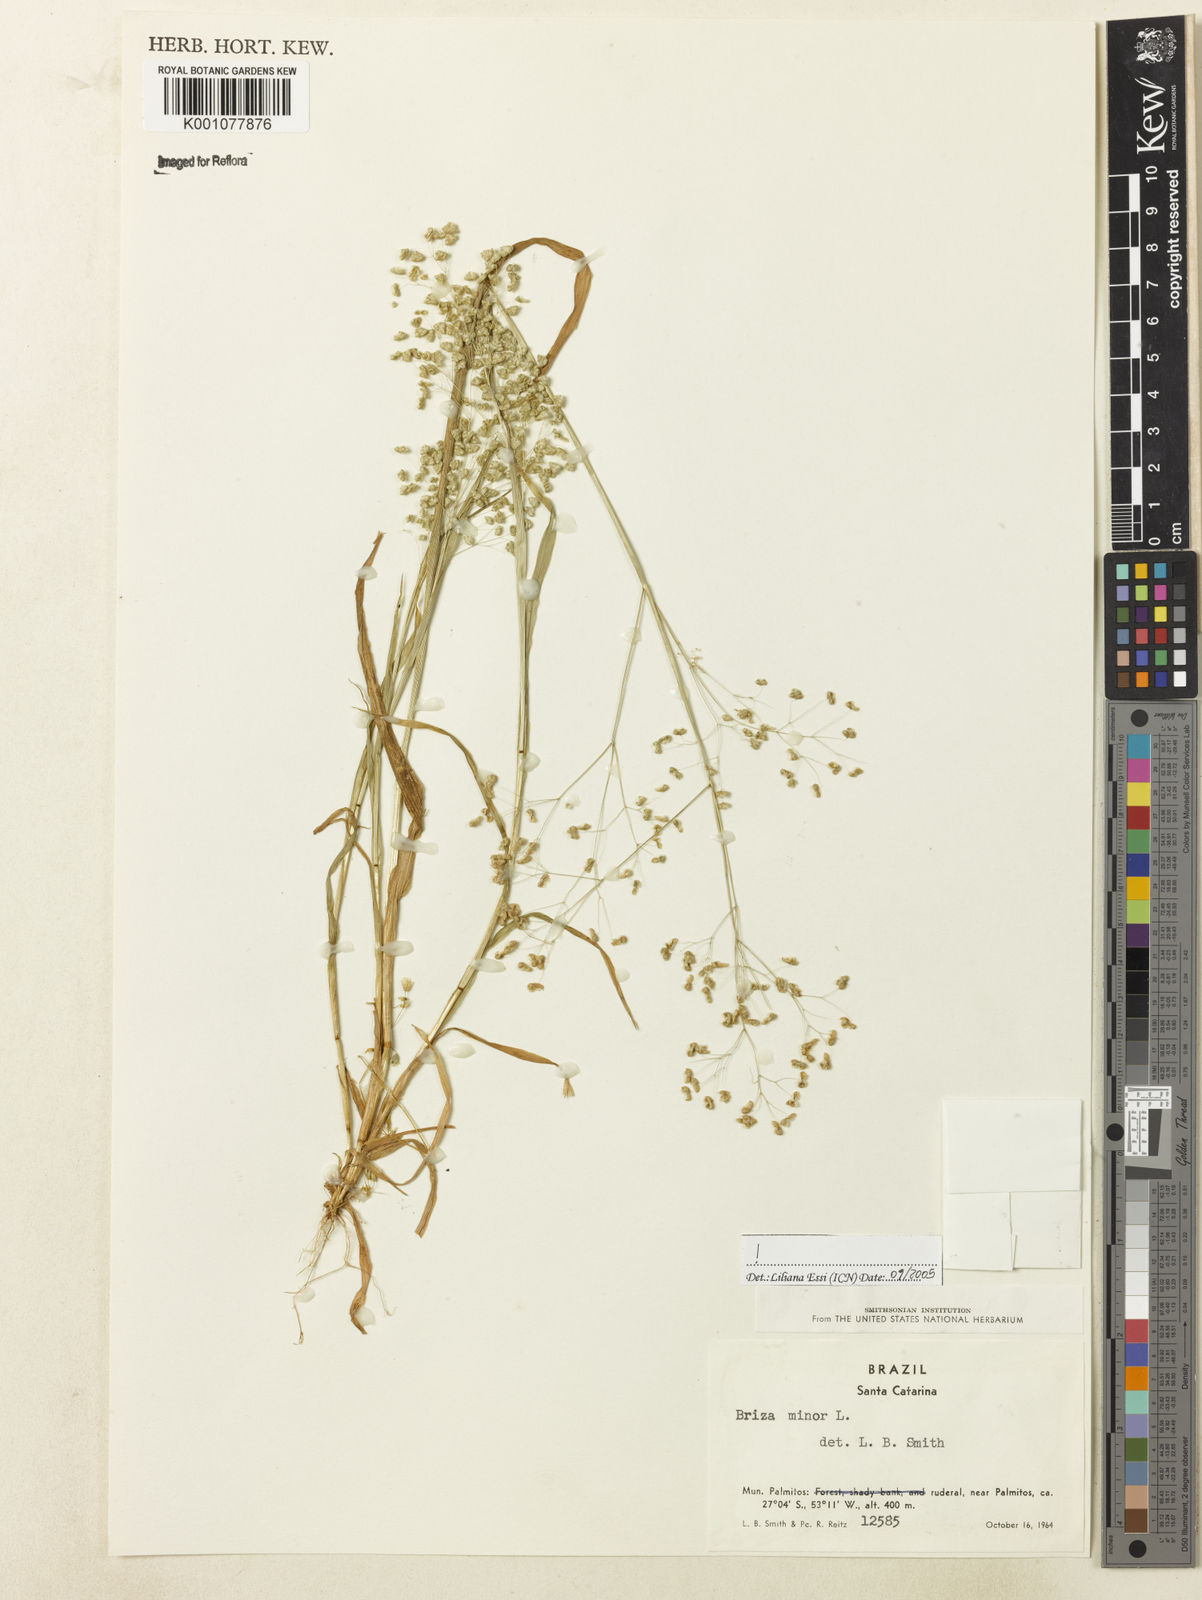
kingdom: Plantae
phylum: Tracheophyta
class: Liliopsida
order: Poales
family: Poaceae
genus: Briza
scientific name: Briza minor
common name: Lesser quaking-grass
